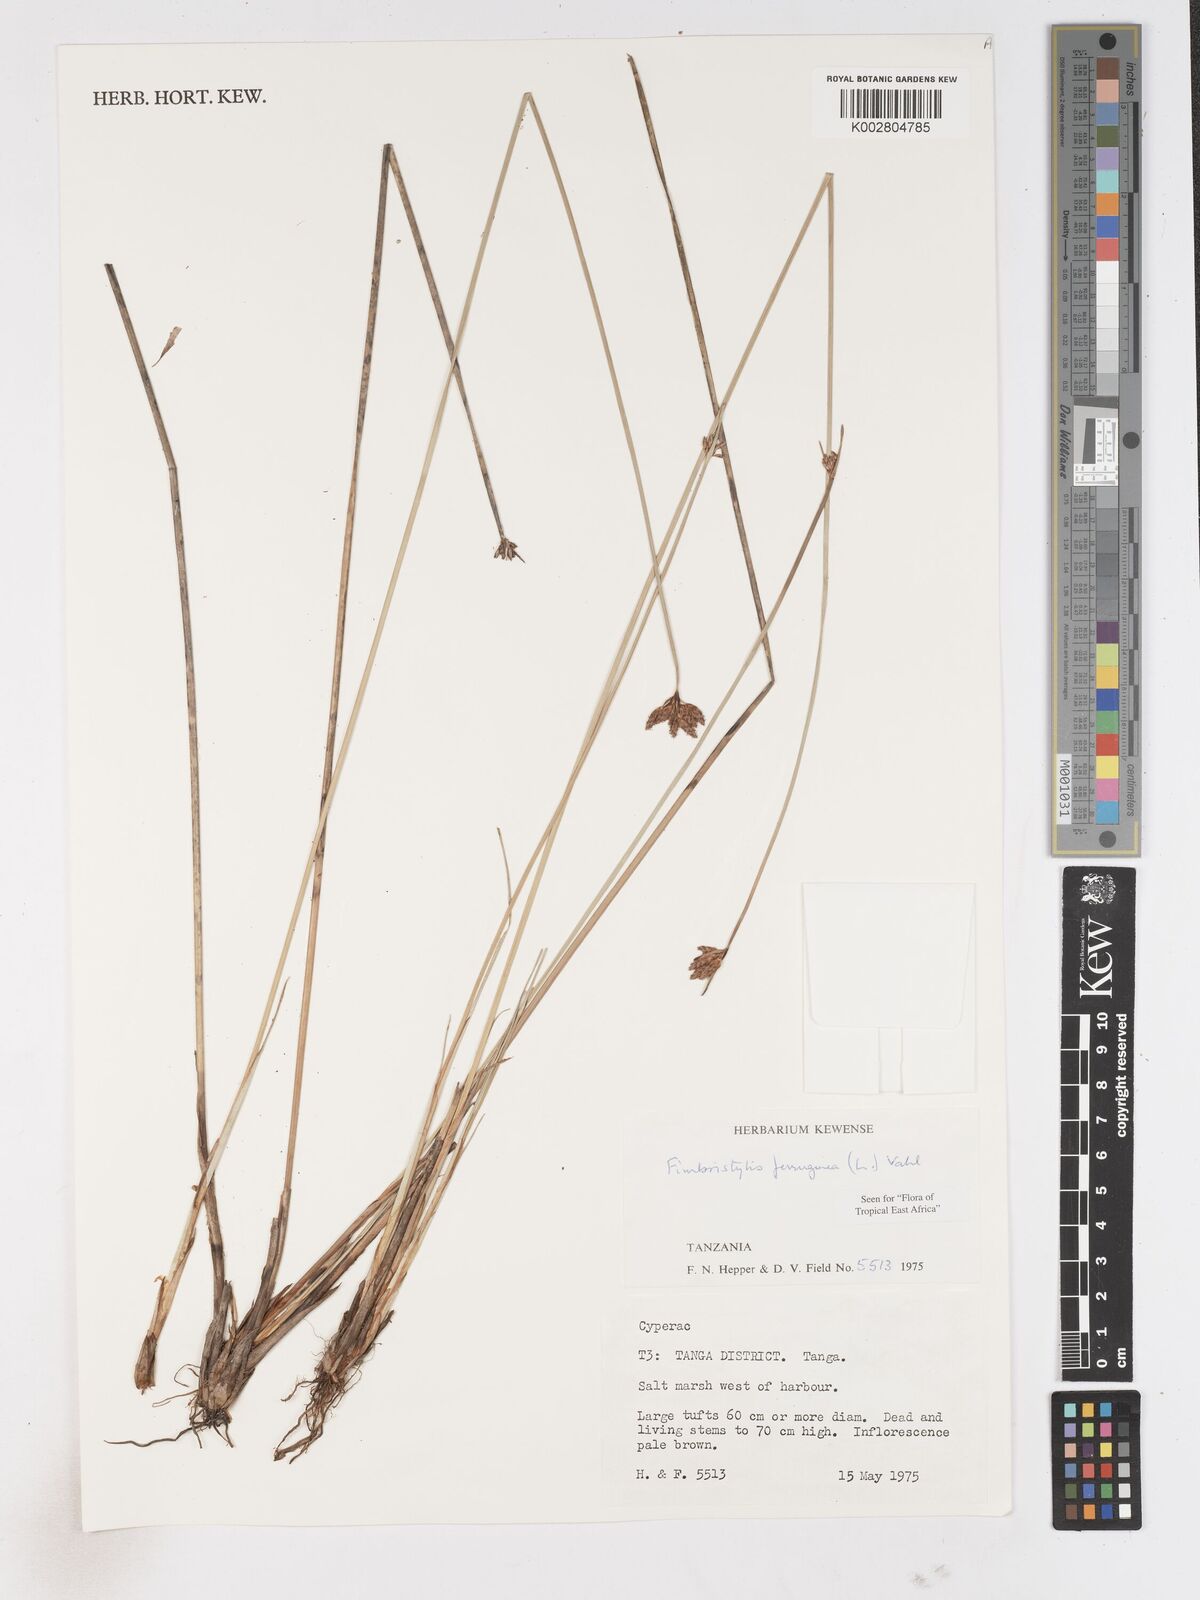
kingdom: Plantae
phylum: Tracheophyta
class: Liliopsida
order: Poales
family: Cyperaceae
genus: Fimbristylis
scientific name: Fimbristylis ferruginea
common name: West indian fimbry
